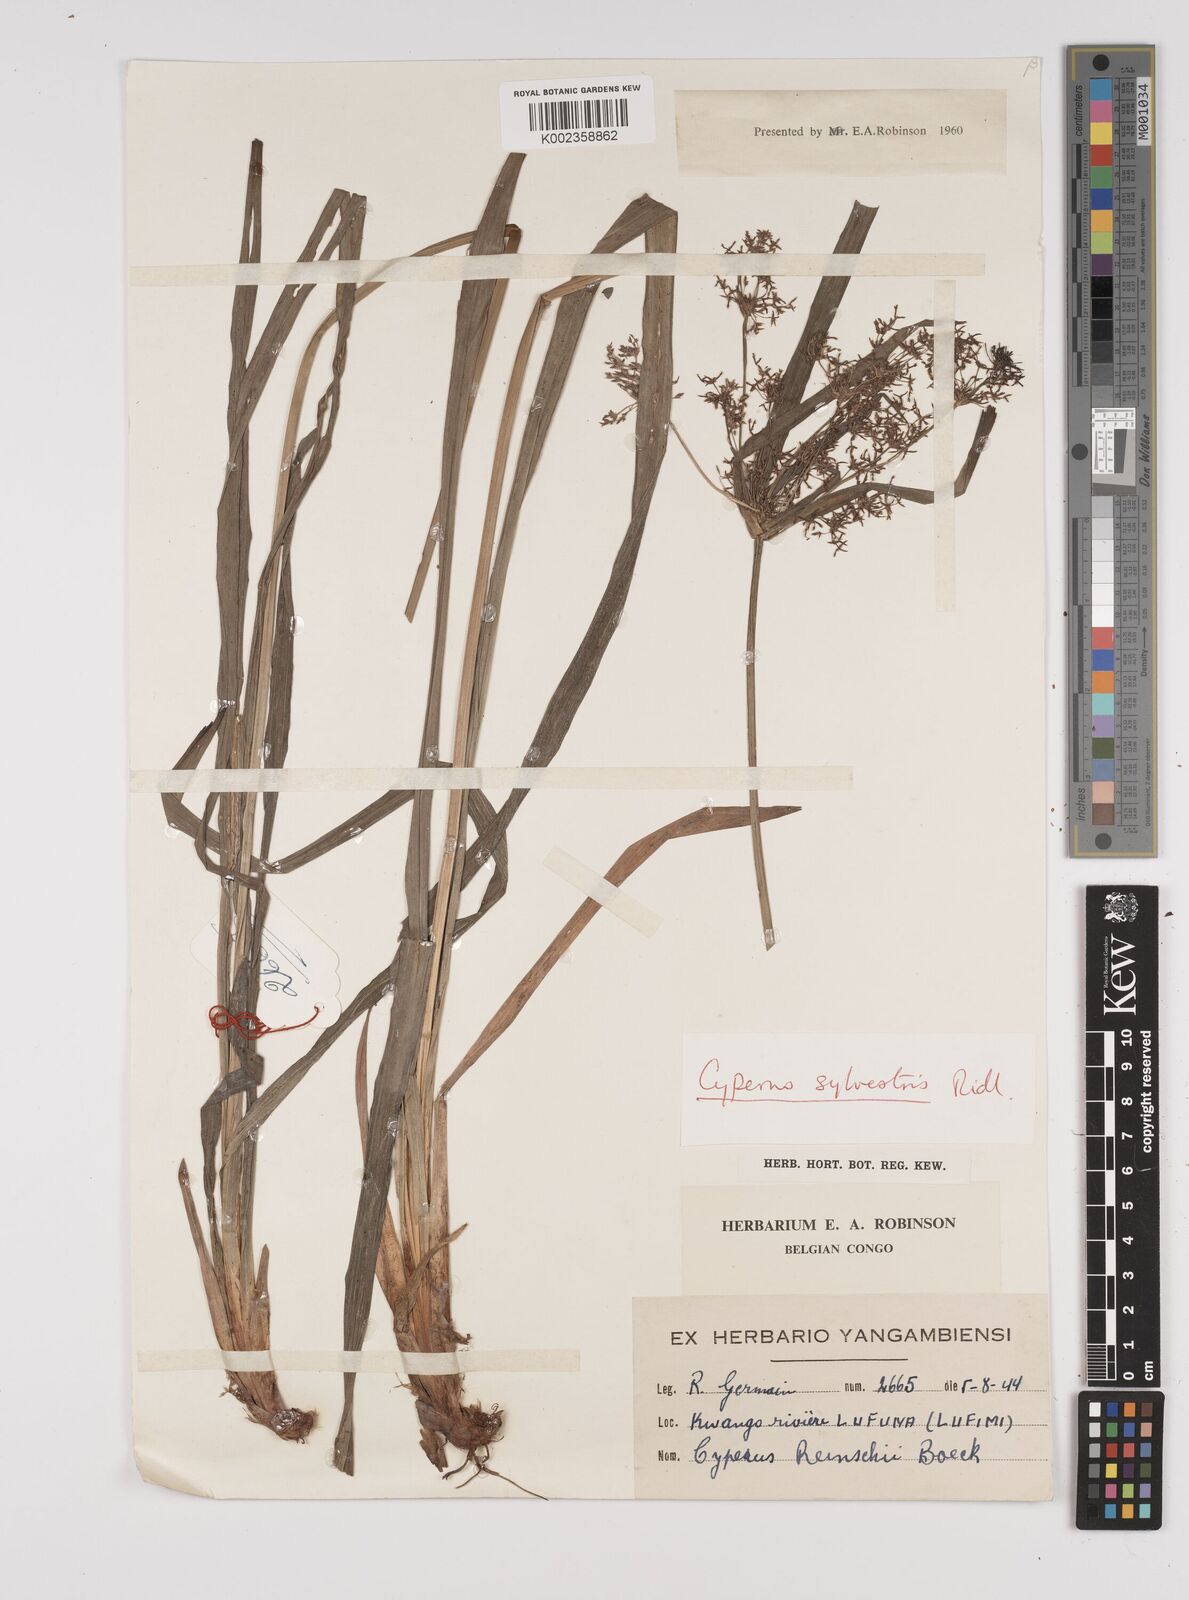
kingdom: Plantae
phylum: Tracheophyta
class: Liliopsida
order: Poales
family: Cyperaceae
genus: Cyperus
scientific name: Cyperus glaucophyllus
